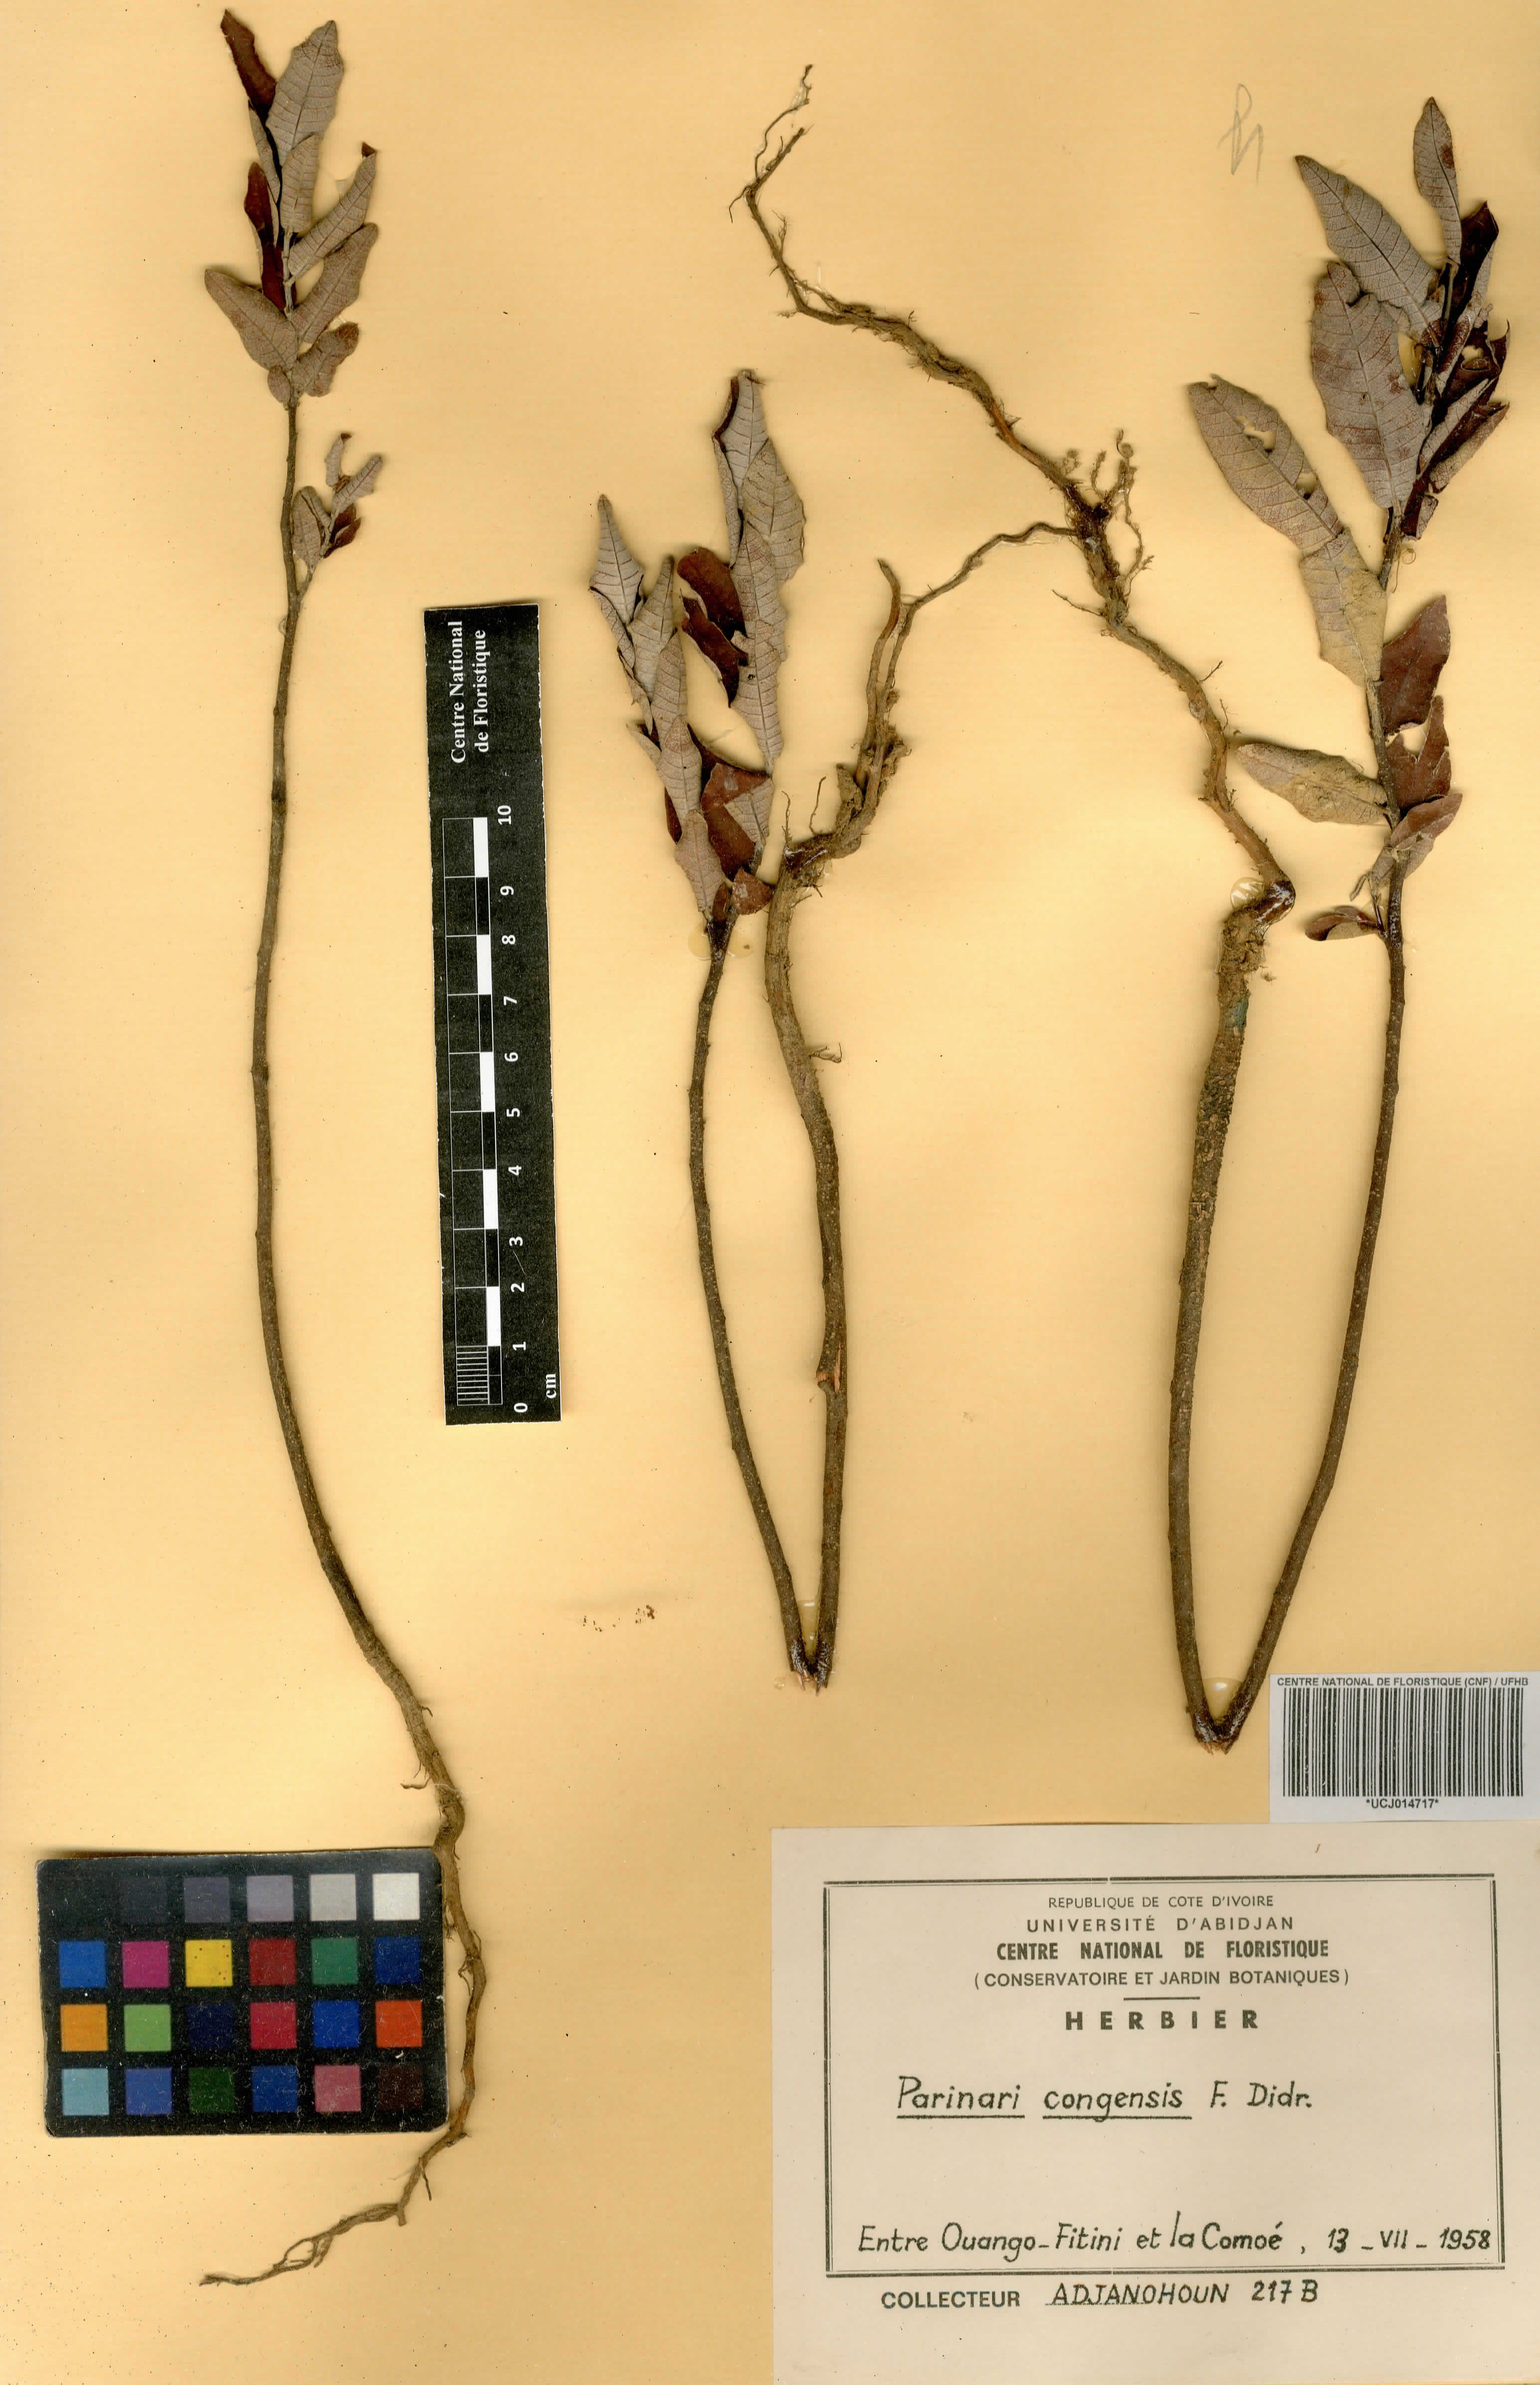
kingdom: Plantae
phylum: Tracheophyta
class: Magnoliopsida
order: Malpighiales
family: Chrysobalanaceae
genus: Parinari
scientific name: Parinari congensis
